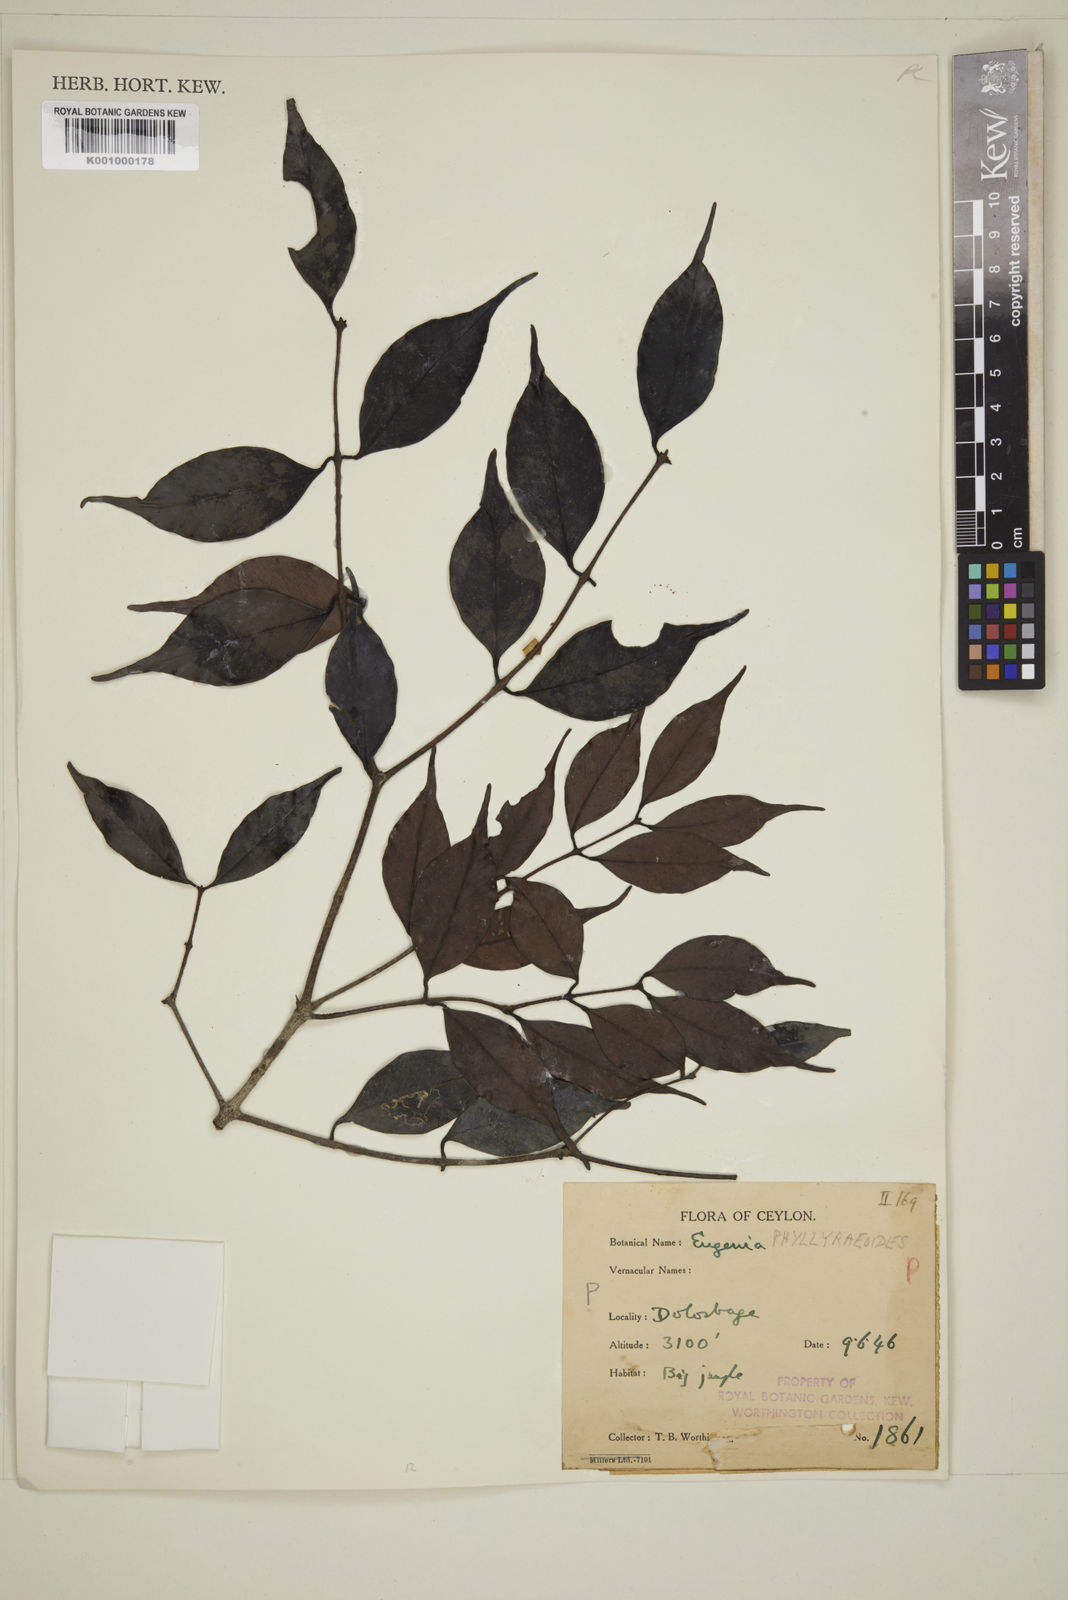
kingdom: Plantae
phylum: Tracheophyta
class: Magnoliopsida
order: Myrtales
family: Myrtaceae
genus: Eugenia
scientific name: Eugenia
